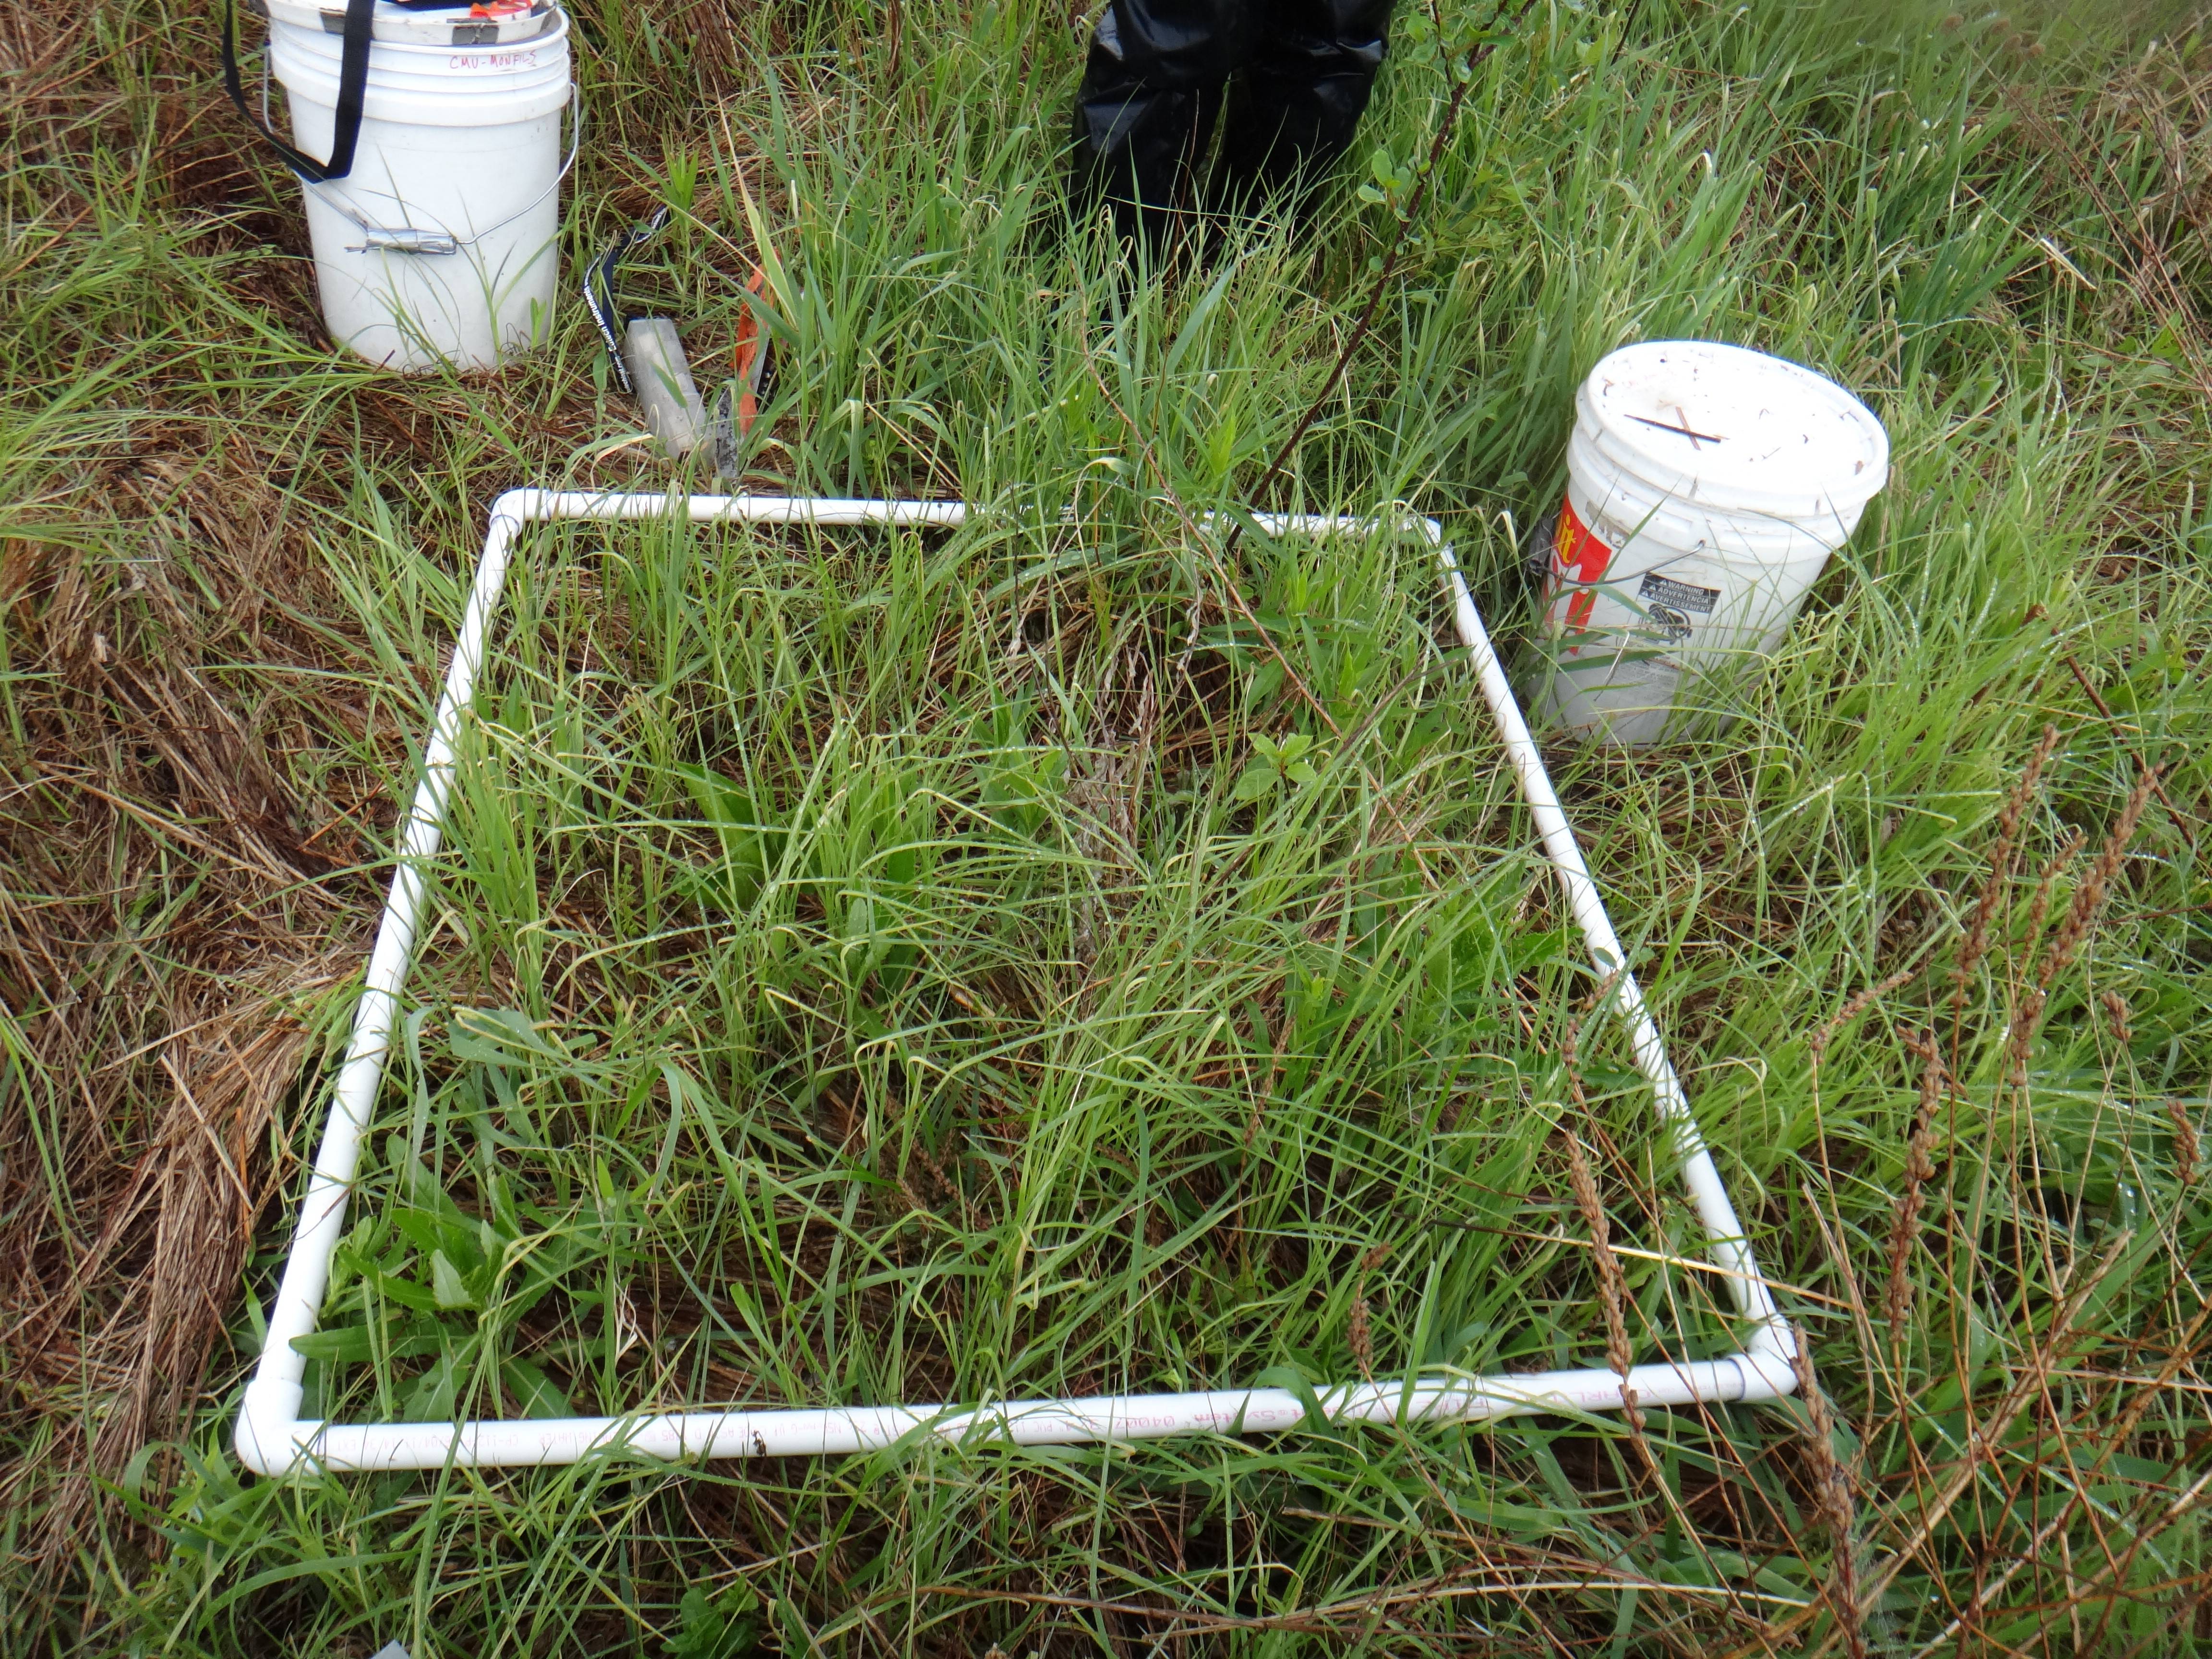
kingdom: Plantae
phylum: Tracheophyta
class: Magnoliopsida
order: Fabales
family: Fabaceae
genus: Lathyrus
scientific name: Lathyrus palustris
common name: Marsh pea
